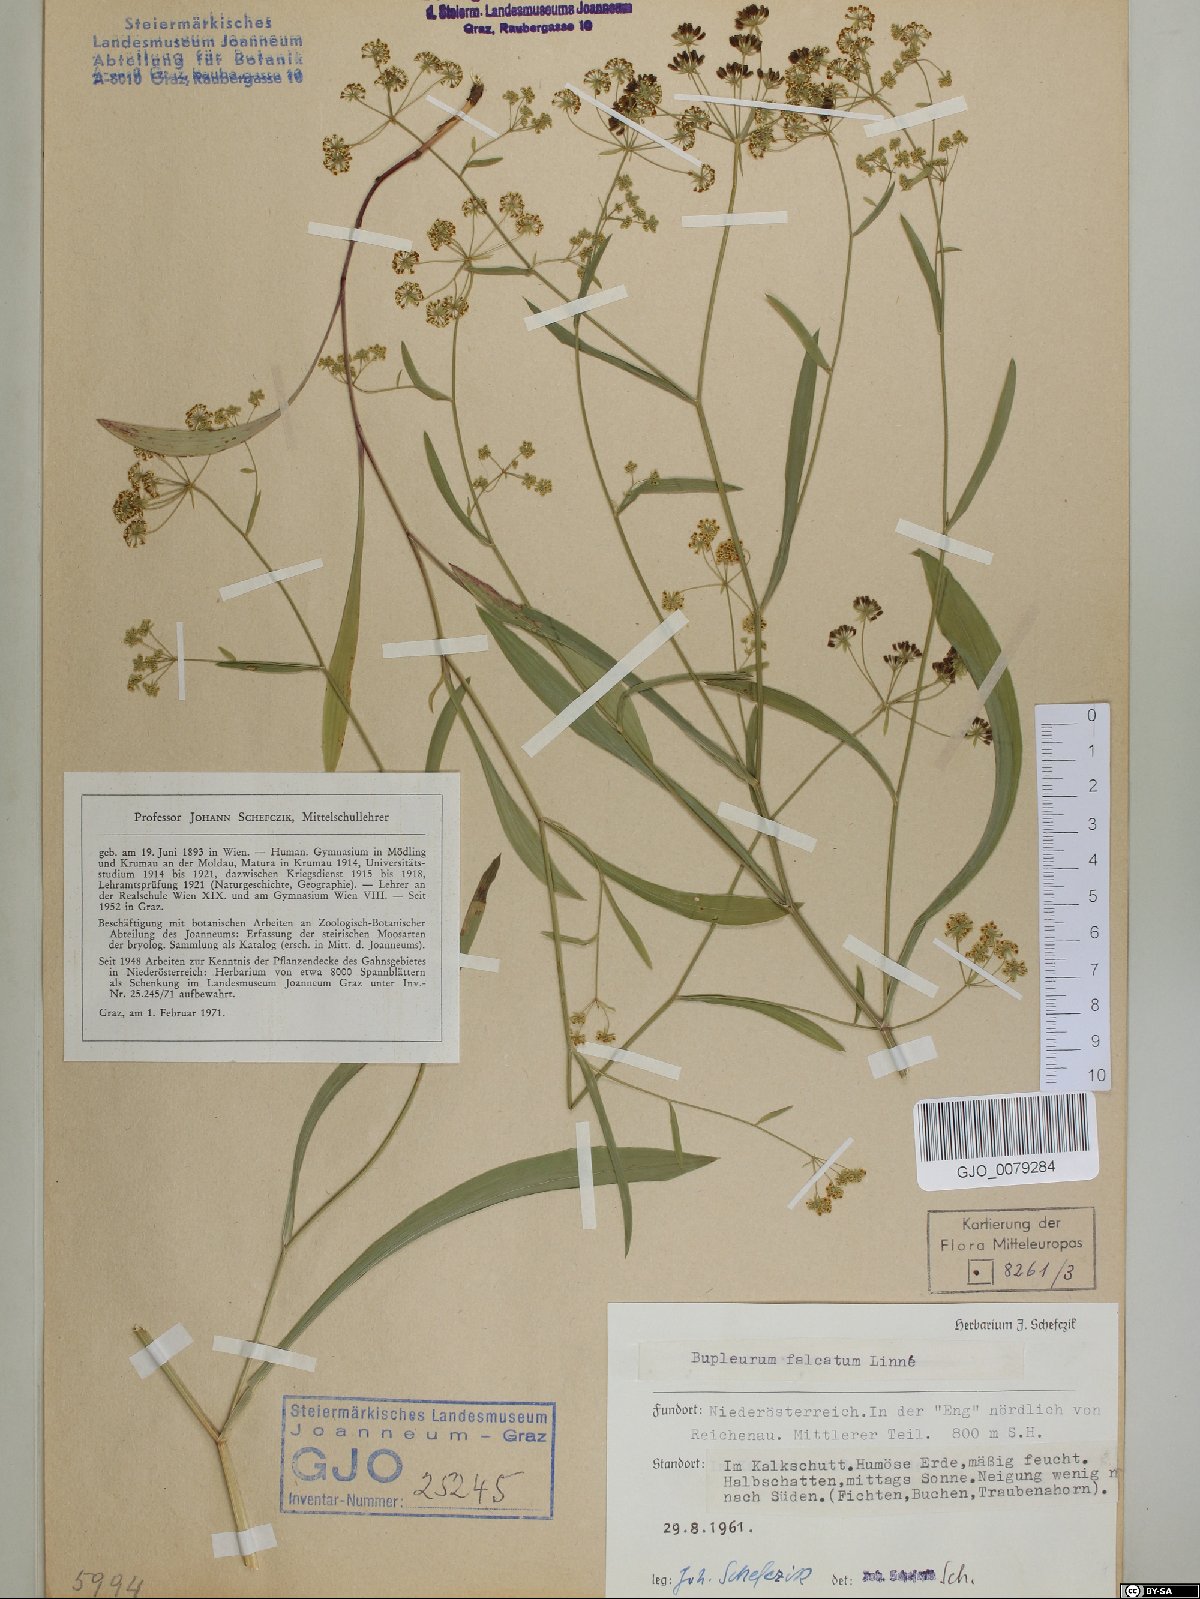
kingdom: Plantae
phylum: Tracheophyta
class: Magnoliopsida
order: Apiales
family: Apiaceae
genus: Bupleurum
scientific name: Bupleurum falcatum
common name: Sickle-leaved hare's-ear
